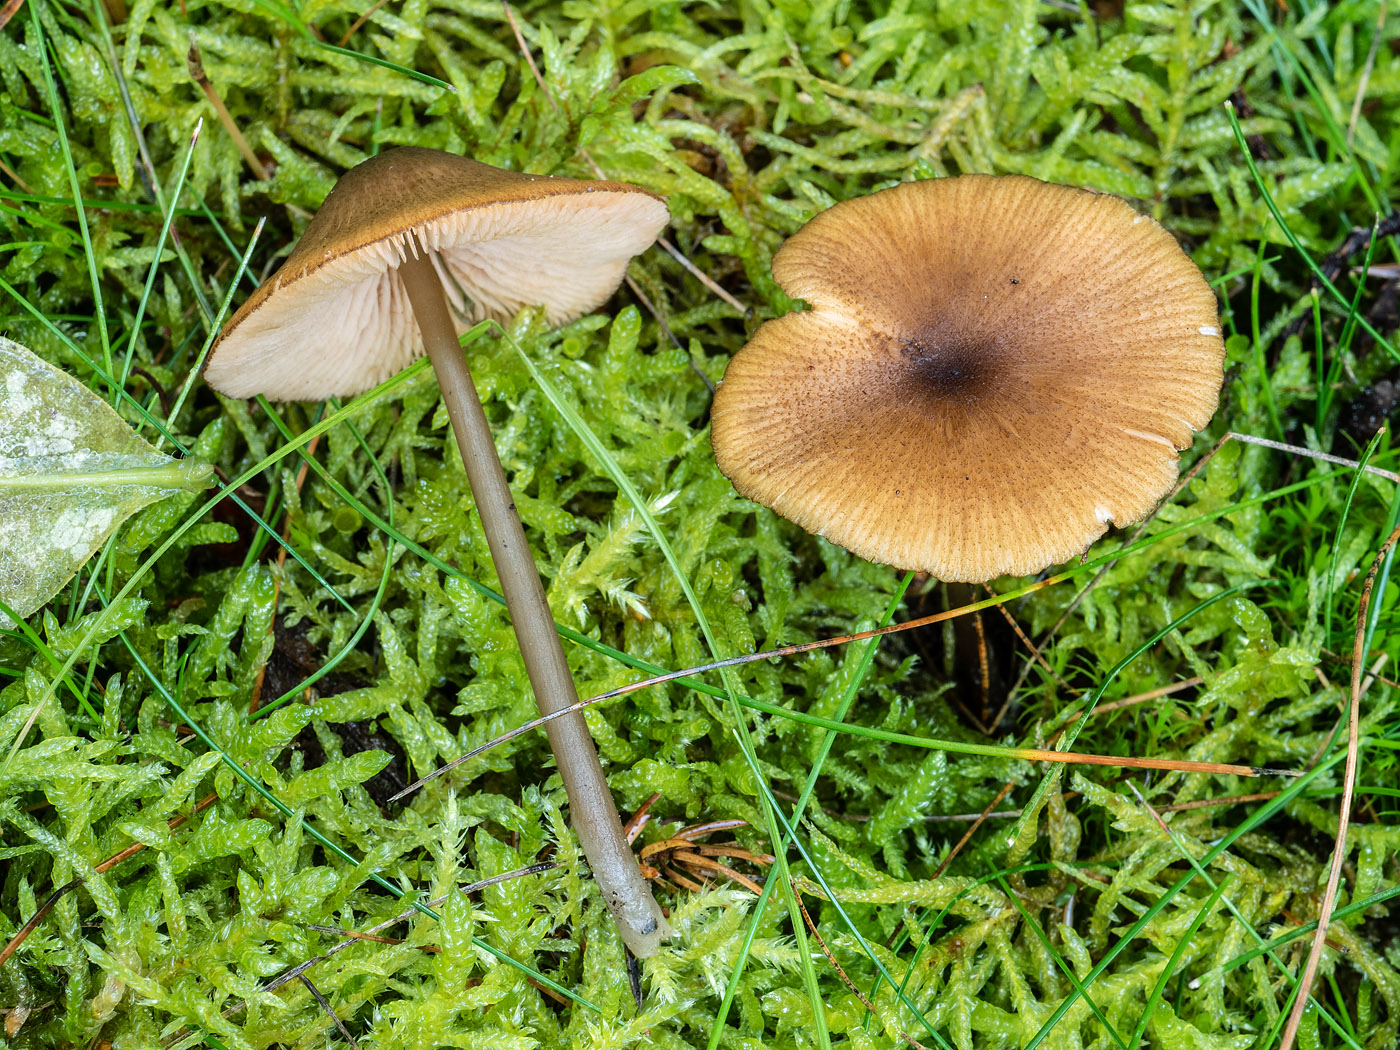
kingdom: Fungi
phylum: Basidiomycota
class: Agaricomycetes
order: Agaricales
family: Entolomataceae
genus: Entoloma
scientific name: Entoloma formosum
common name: brungul rødblad
